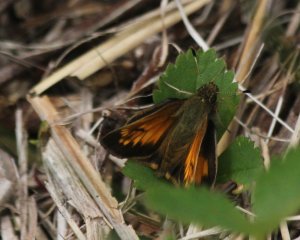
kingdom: Animalia
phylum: Arthropoda
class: Insecta
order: Lepidoptera
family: Hesperiidae
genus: Lon
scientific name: Lon hobomok
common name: Hobomok Skipper
